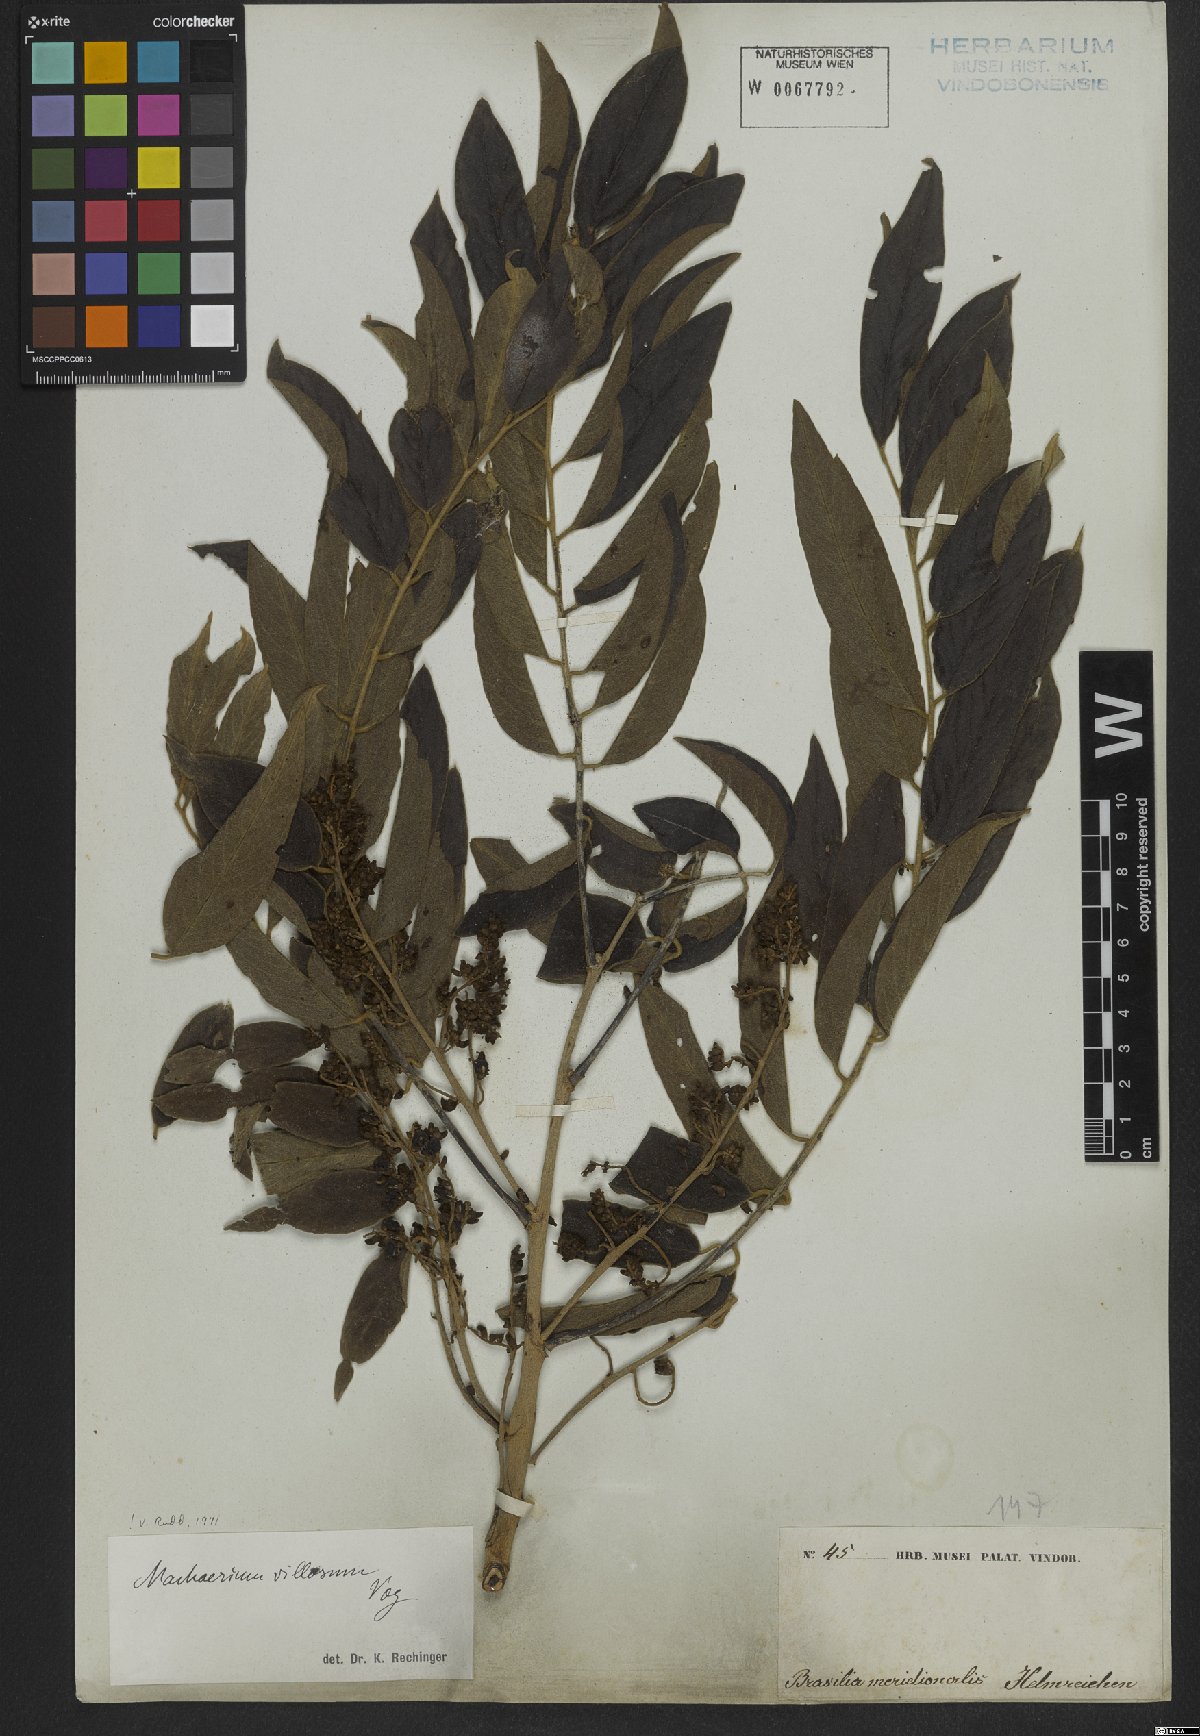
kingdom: Plantae
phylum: Tracheophyta
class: Magnoliopsida
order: Fabales
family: Fabaceae
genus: Machaerium
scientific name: Machaerium villosum
